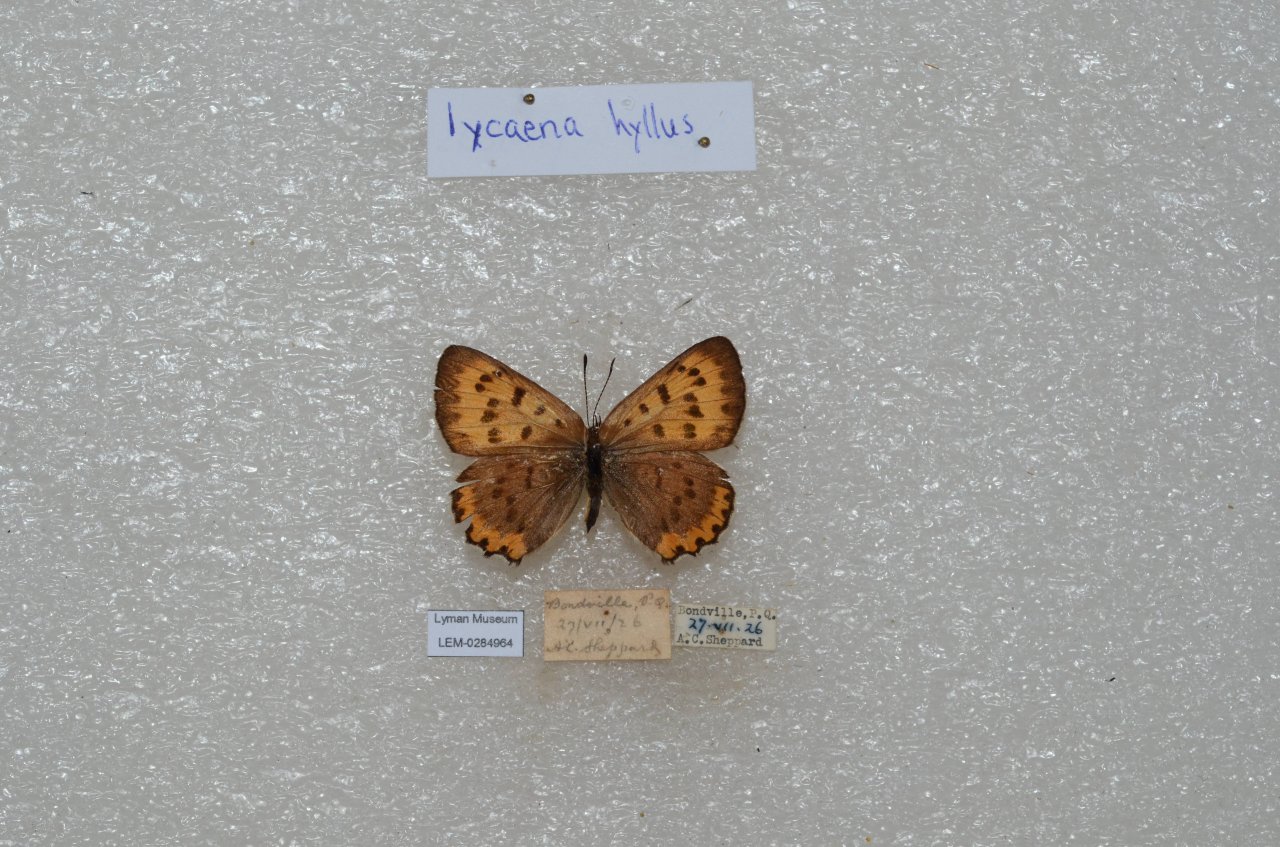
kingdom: Animalia
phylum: Arthropoda
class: Insecta
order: Lepidoptera
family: Sesiidae
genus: Sesia
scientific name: Sesia Lycaena hyllus
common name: Bronze Copper
